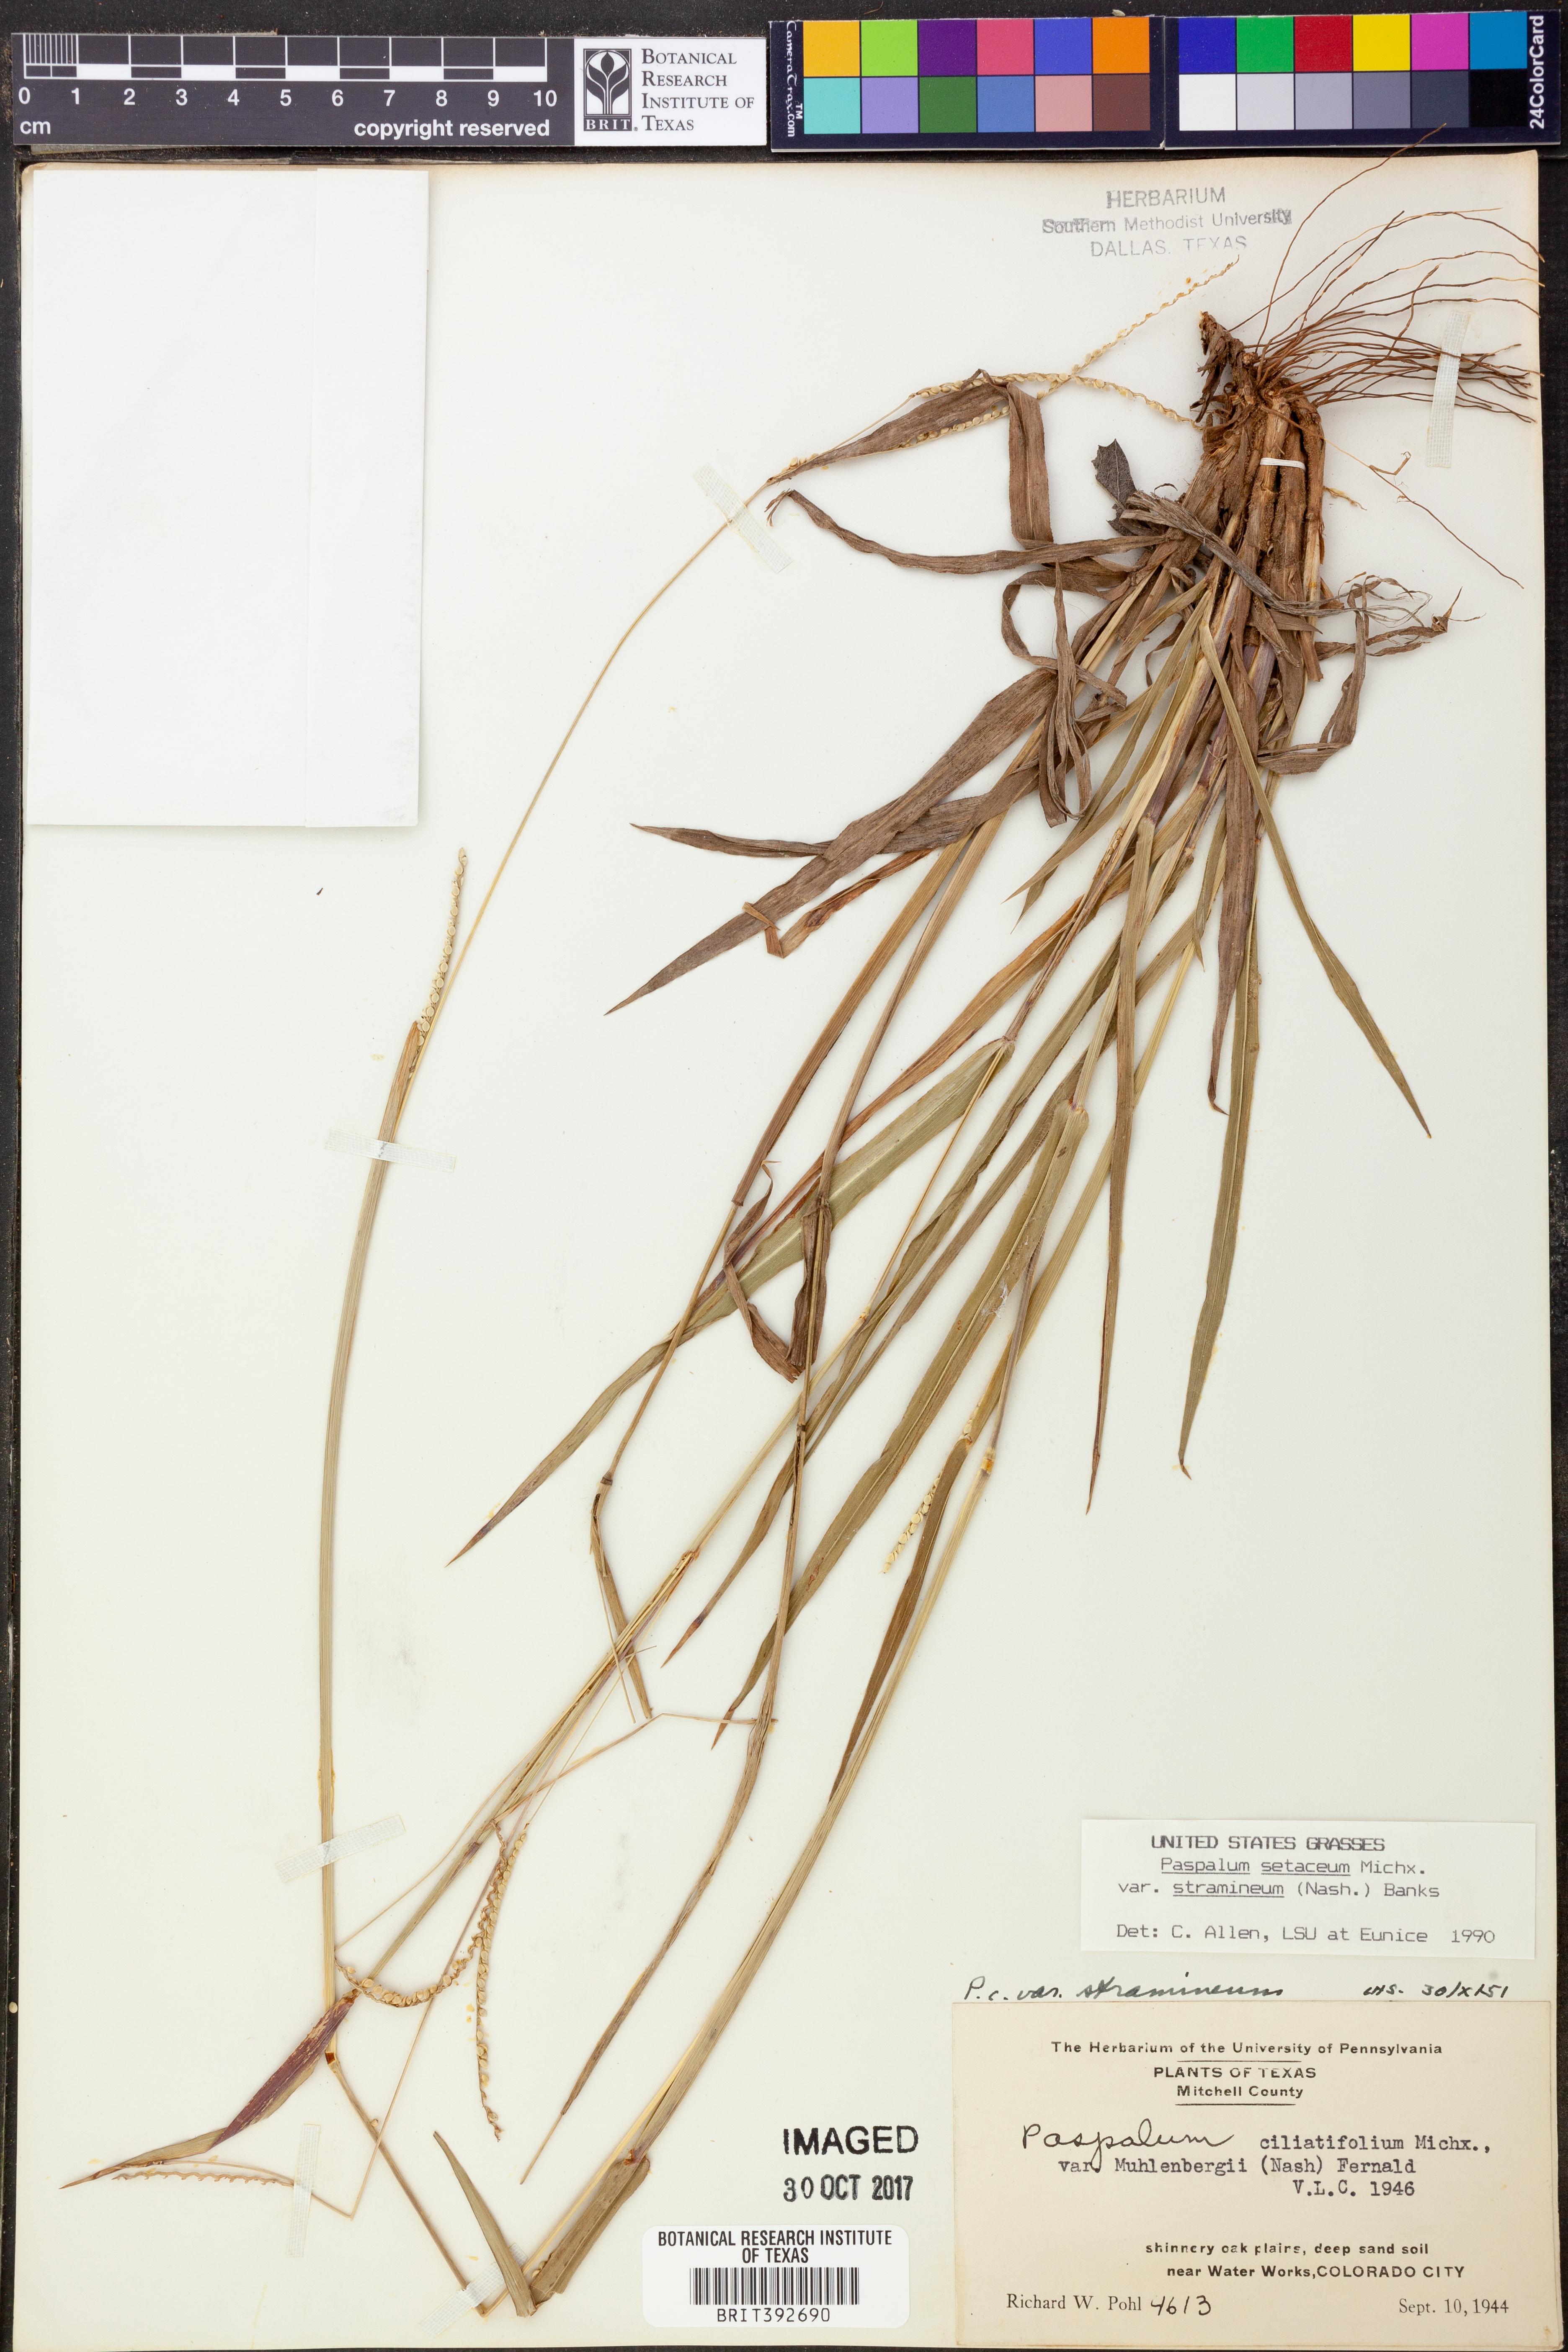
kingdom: Plantae
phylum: Tracheophyta
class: Liliopsida
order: Poales
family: Poaceae
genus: Paspalum
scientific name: Paspalum setaceum
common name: Slender paspalum
